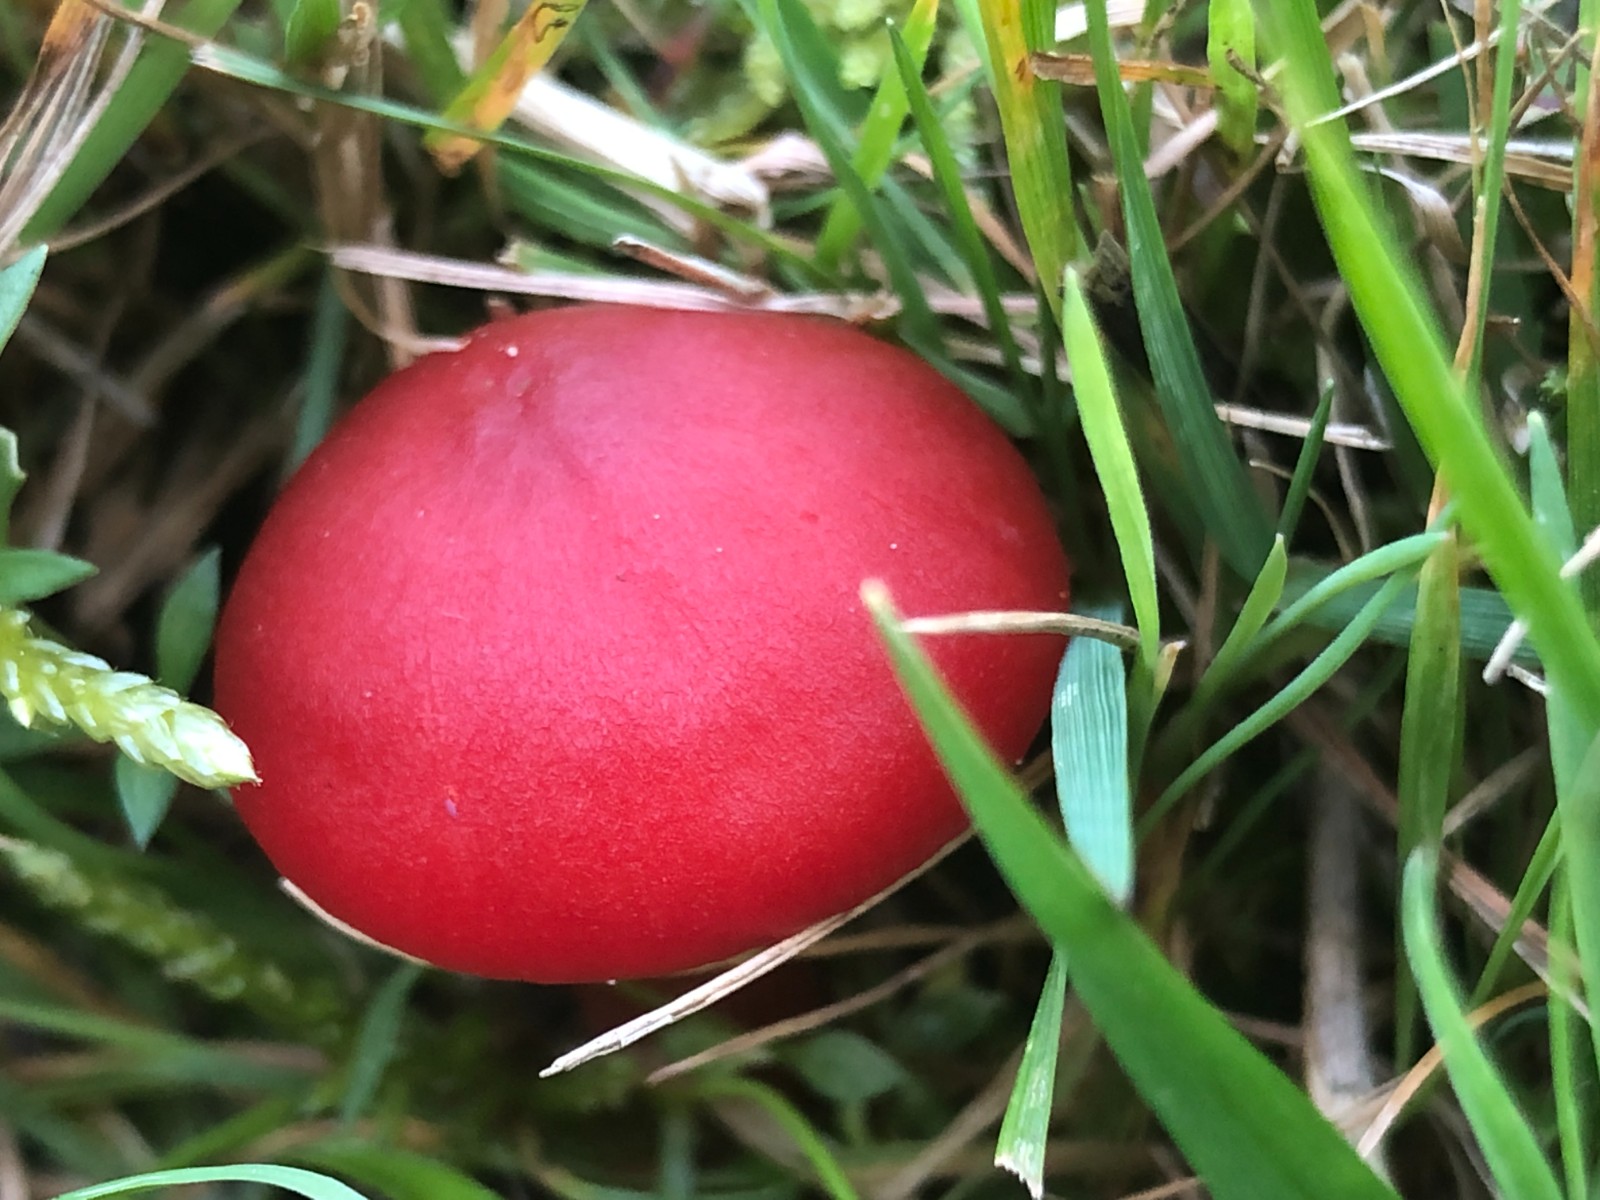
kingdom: Fungi
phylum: Basidiomycota
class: Agaricomycetes
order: Agaricales
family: Hygrophoraceae
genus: Hygrocybe
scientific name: Hygrocybe coccinea
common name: cinnober-vokshat
